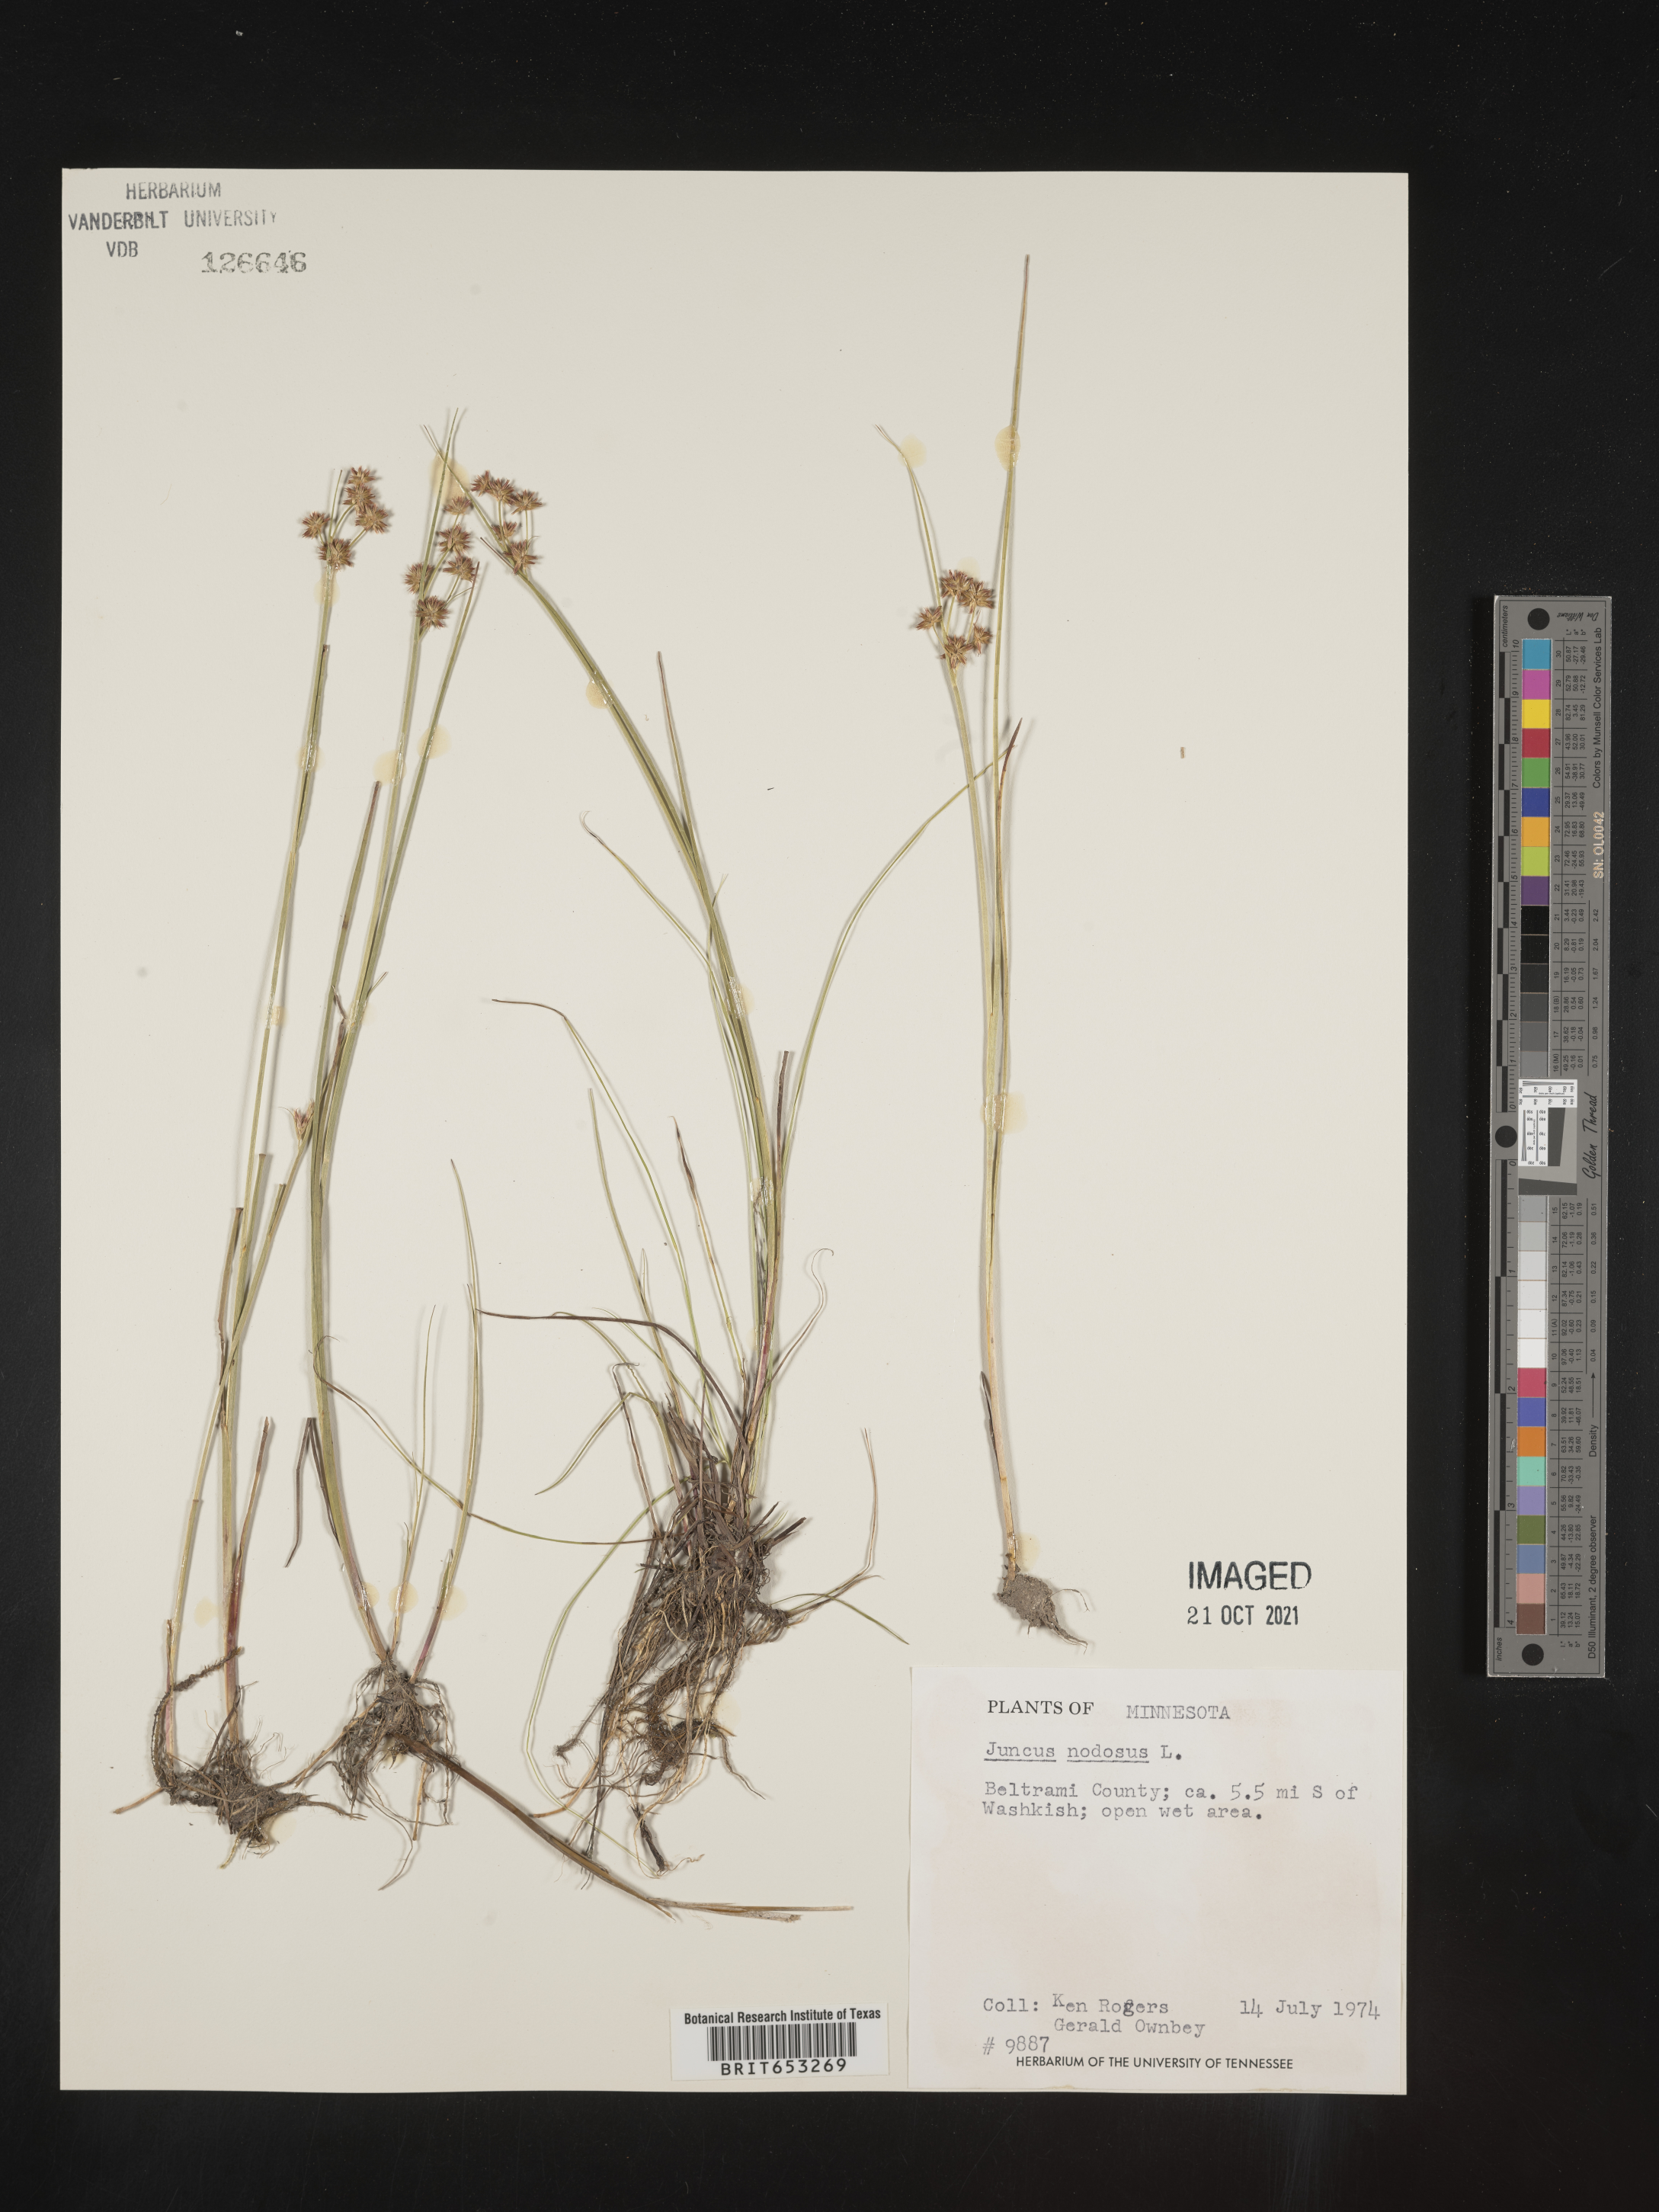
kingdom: Plantae
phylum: Tracheophyta
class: Liliopsida
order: Poales
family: Juncaceae
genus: Juncus
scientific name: Juncus nodosus
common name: Knotted rush
